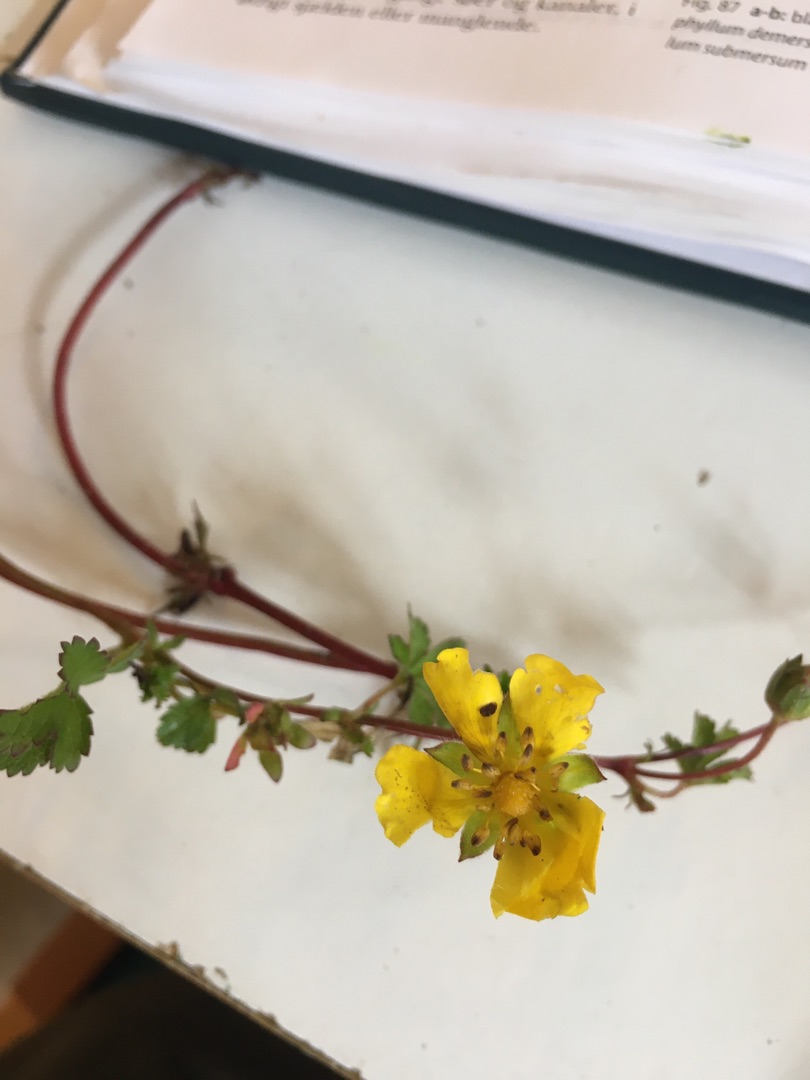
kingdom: Plantae
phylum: Tracheophyta
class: Magnoliopsida
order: Rosales
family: Rosaceae
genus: Potentilla
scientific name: Potentilla reptans
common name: Krybende potentil
